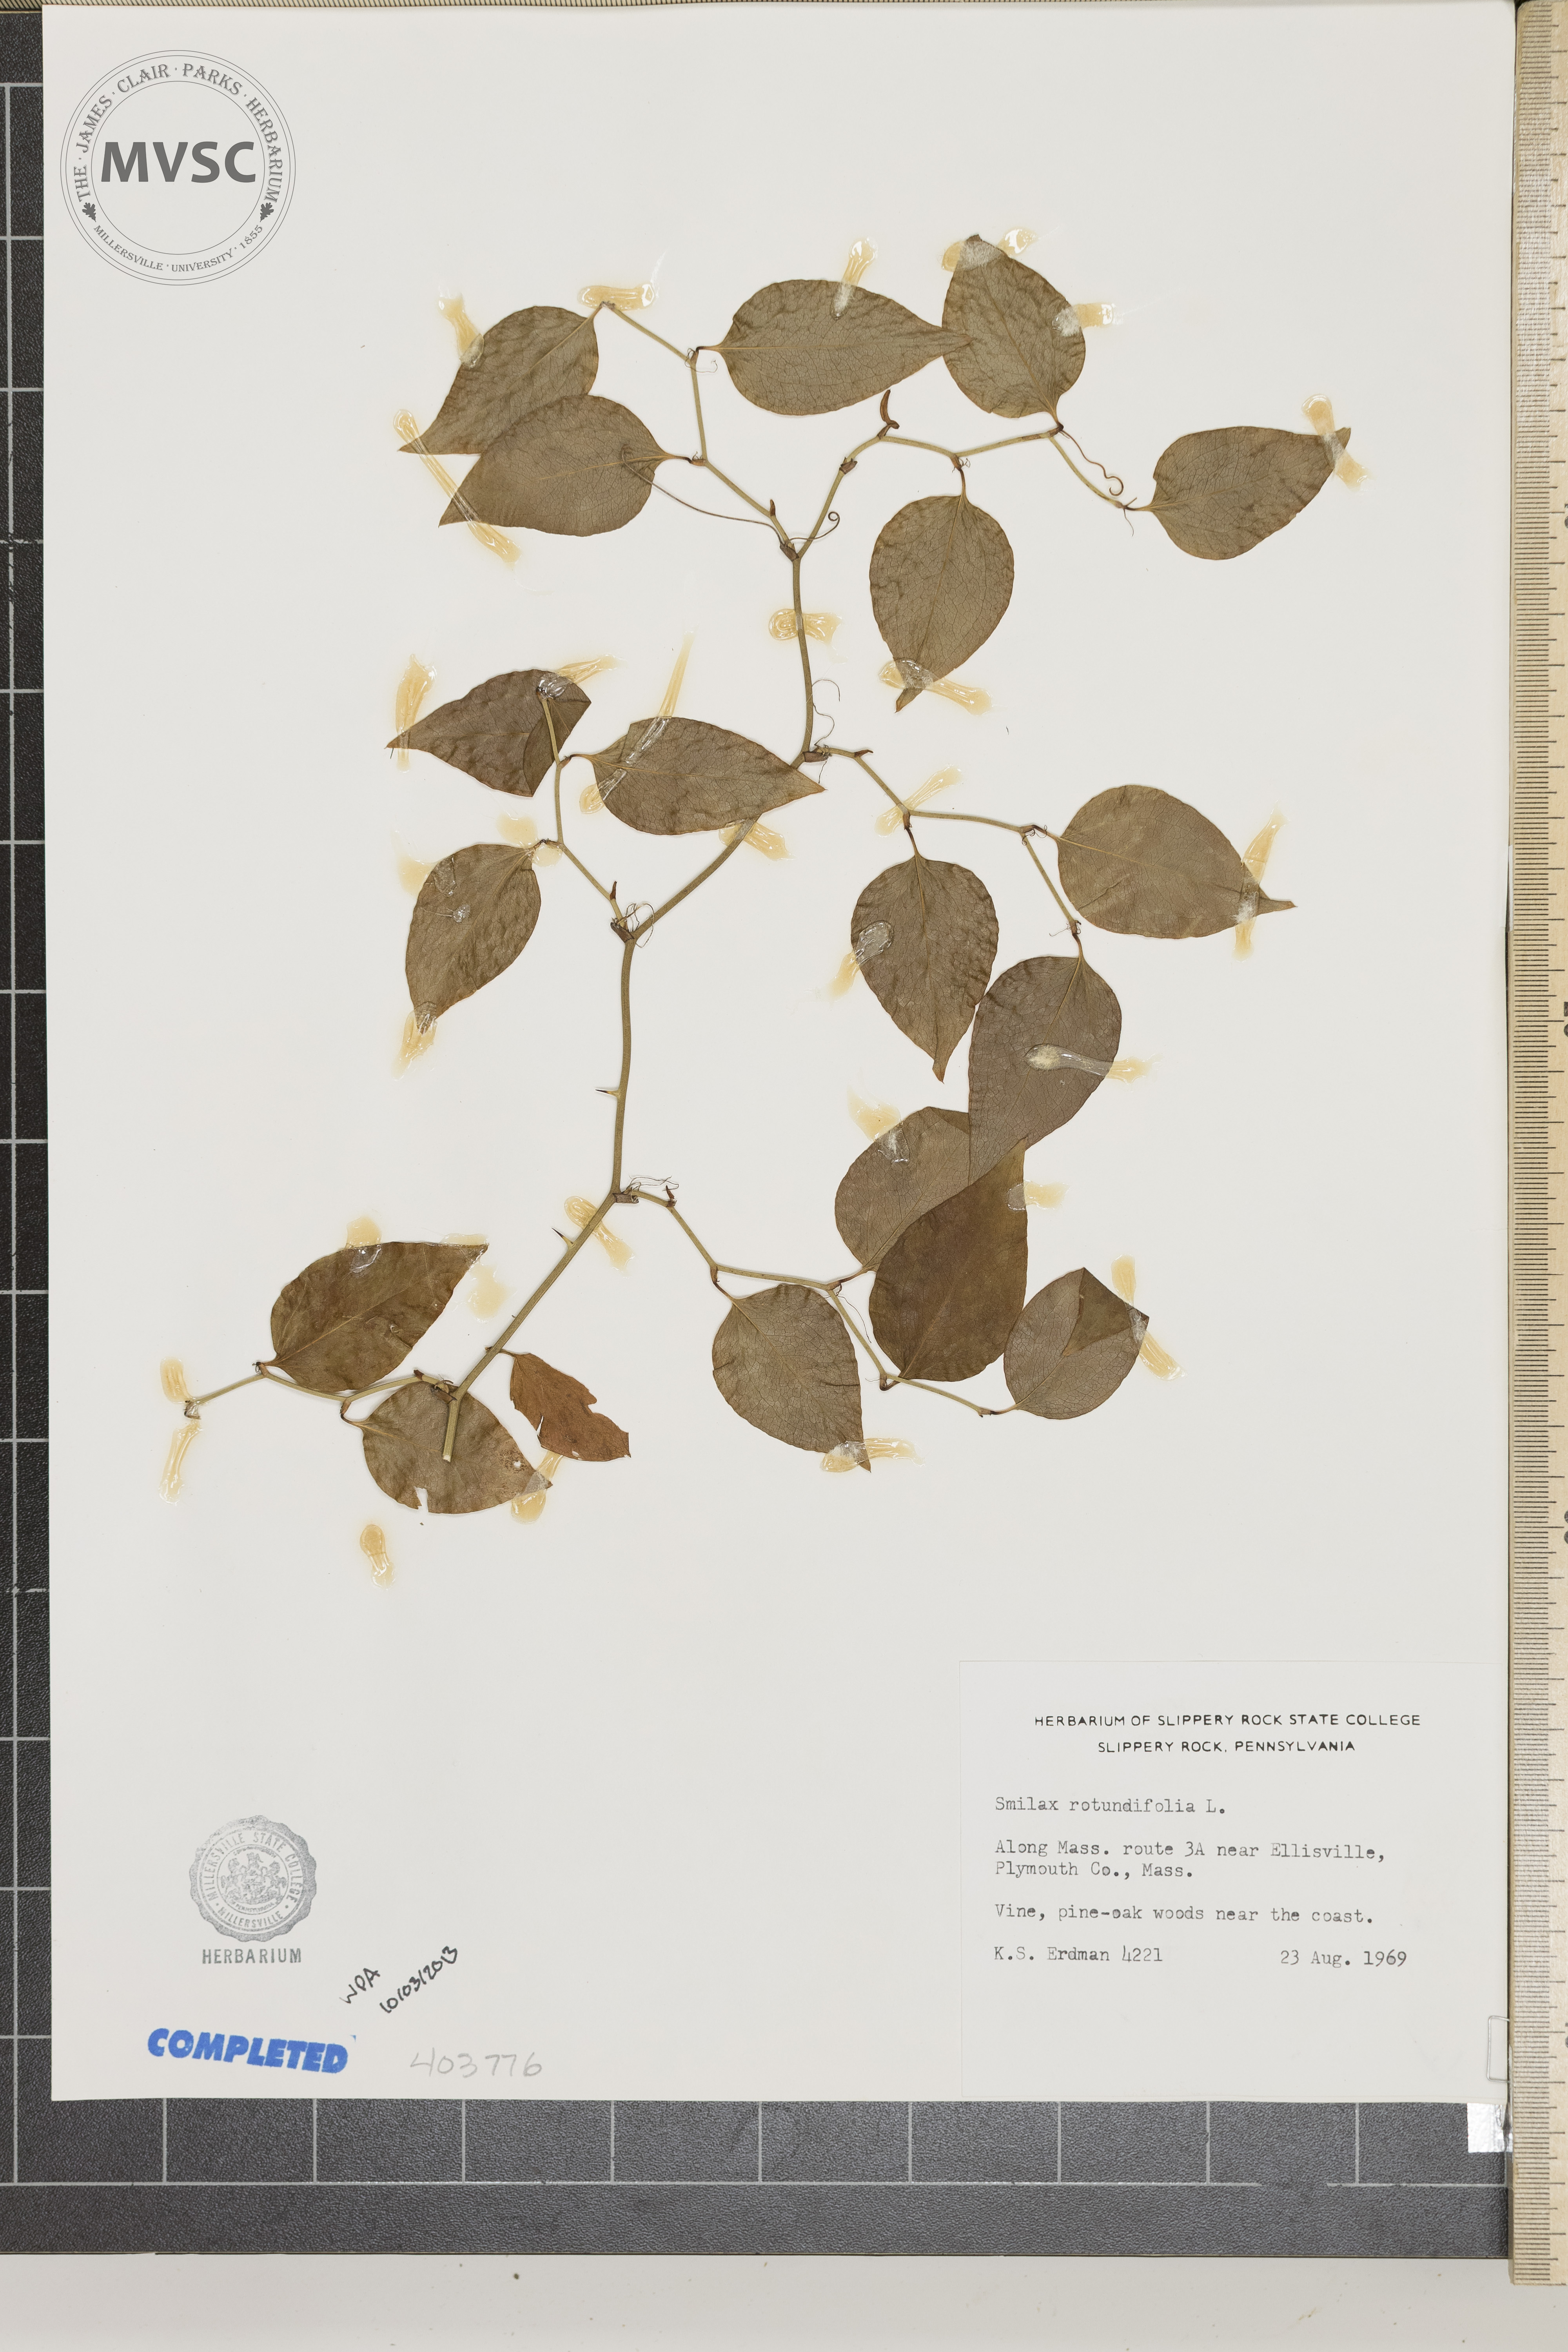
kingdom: Plantae
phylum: Tracheophyta
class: Liliopsida
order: Liliales
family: Smilacaceae
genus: Smilax
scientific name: Smilax rotundifolia
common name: Bullbriar
